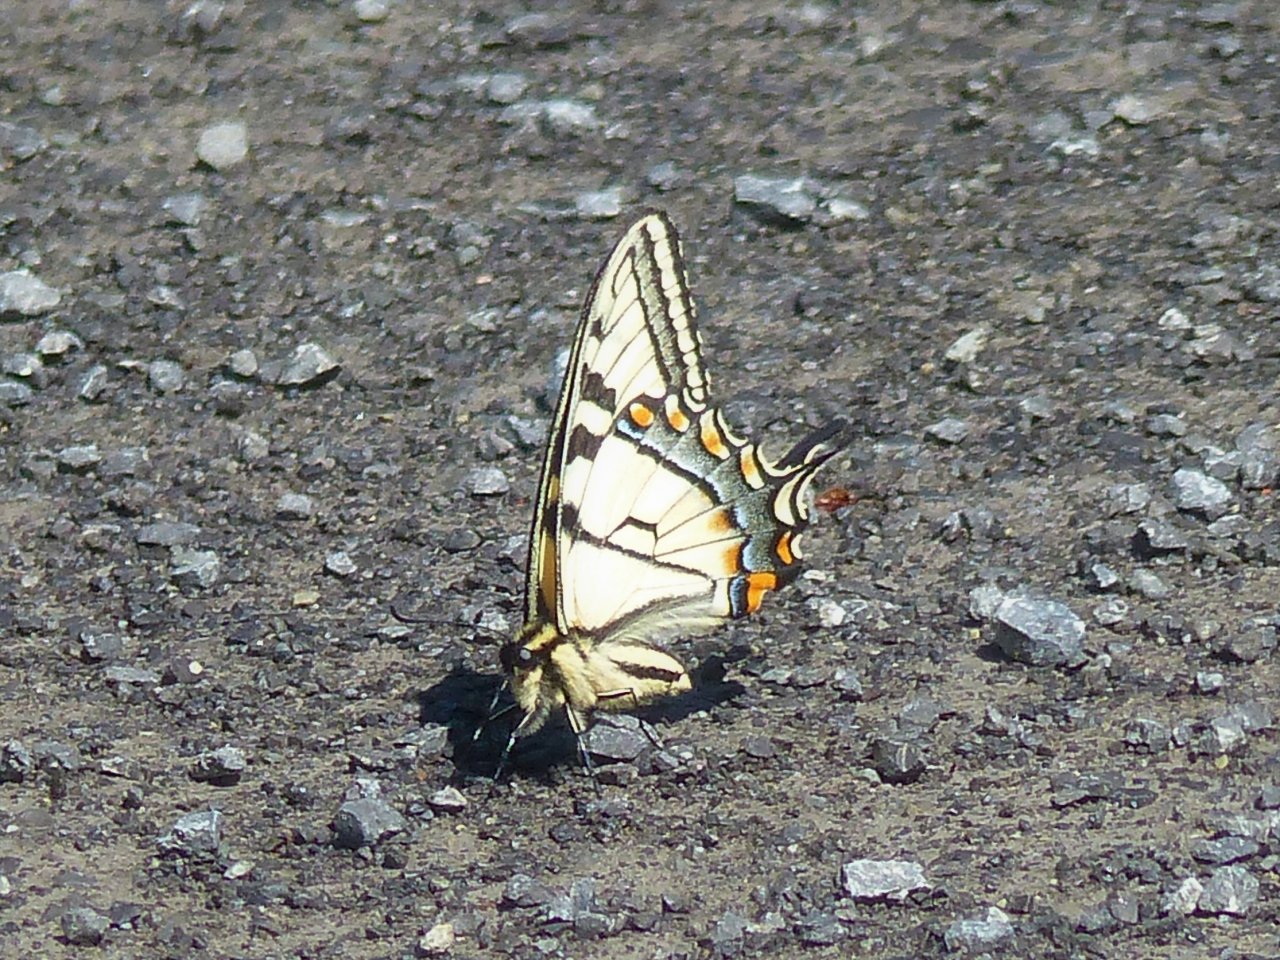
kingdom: Animalia
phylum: Arthropoda
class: Insecta
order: Lepidoptera
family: Papilionidae
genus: Pterourus
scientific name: Pterourus canadensis
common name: Canadian Tiger Swallowtail
